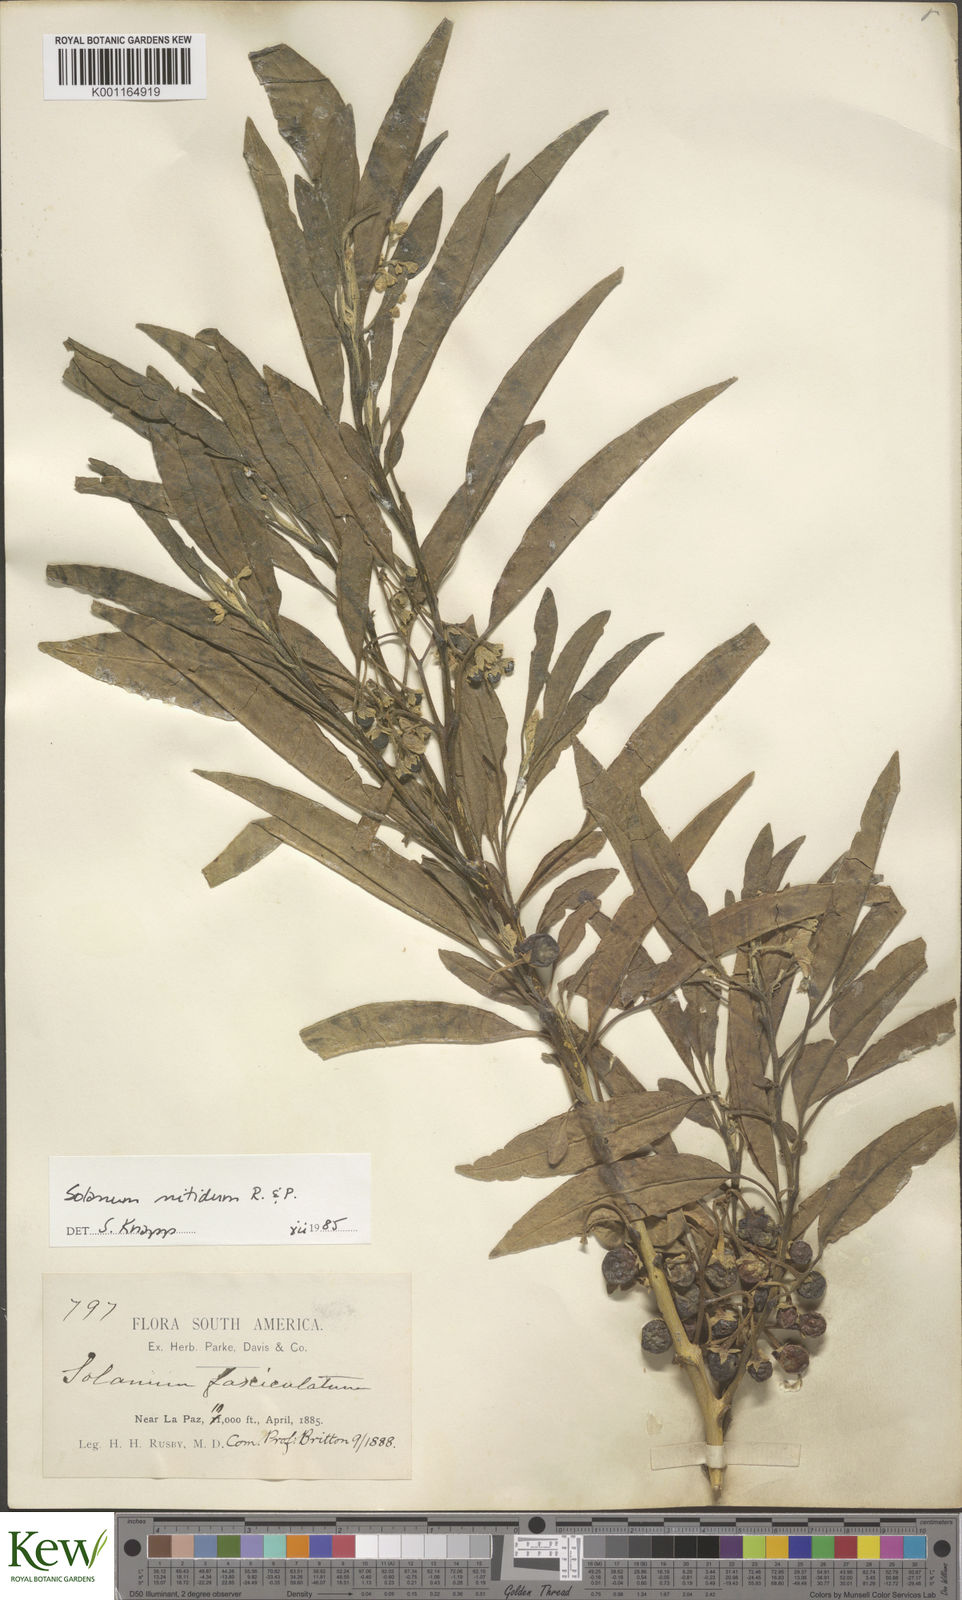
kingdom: Plantae
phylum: Tracheophyta
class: Magnoliopsida
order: Solanales
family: Solanaceae
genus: Solanum
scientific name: Solanum nitidum
